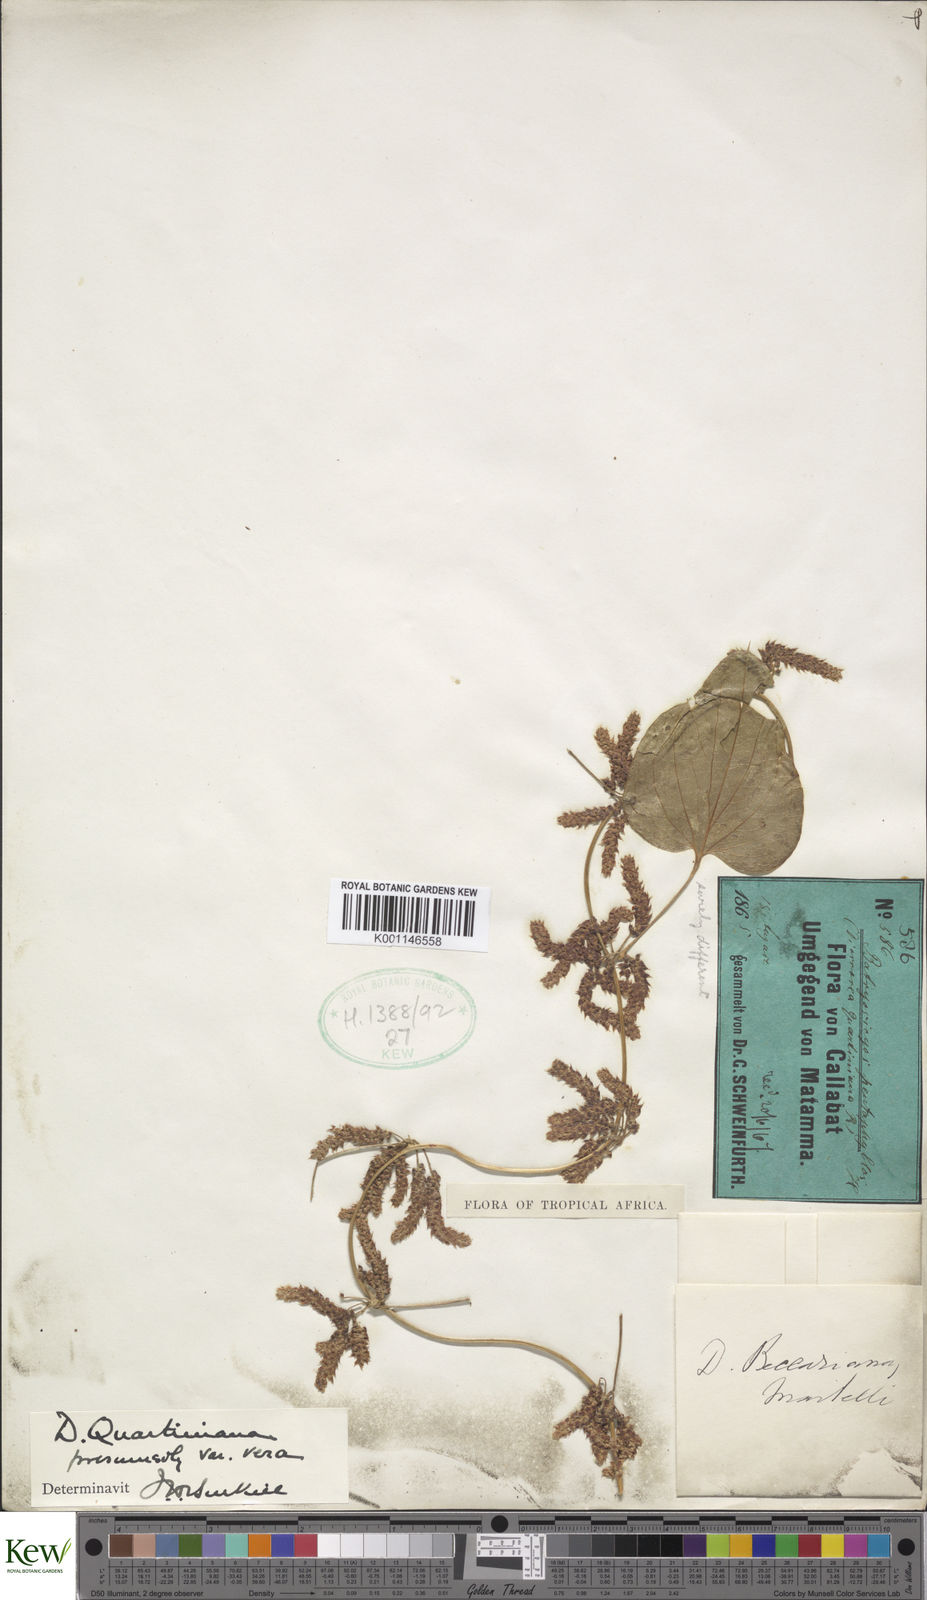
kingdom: Plantae
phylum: Tracheophyta
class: Liliopsida
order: Dioscoreales
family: Dioscoreaceae
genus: Dioscorea
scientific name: Dioscorea quartiniana
